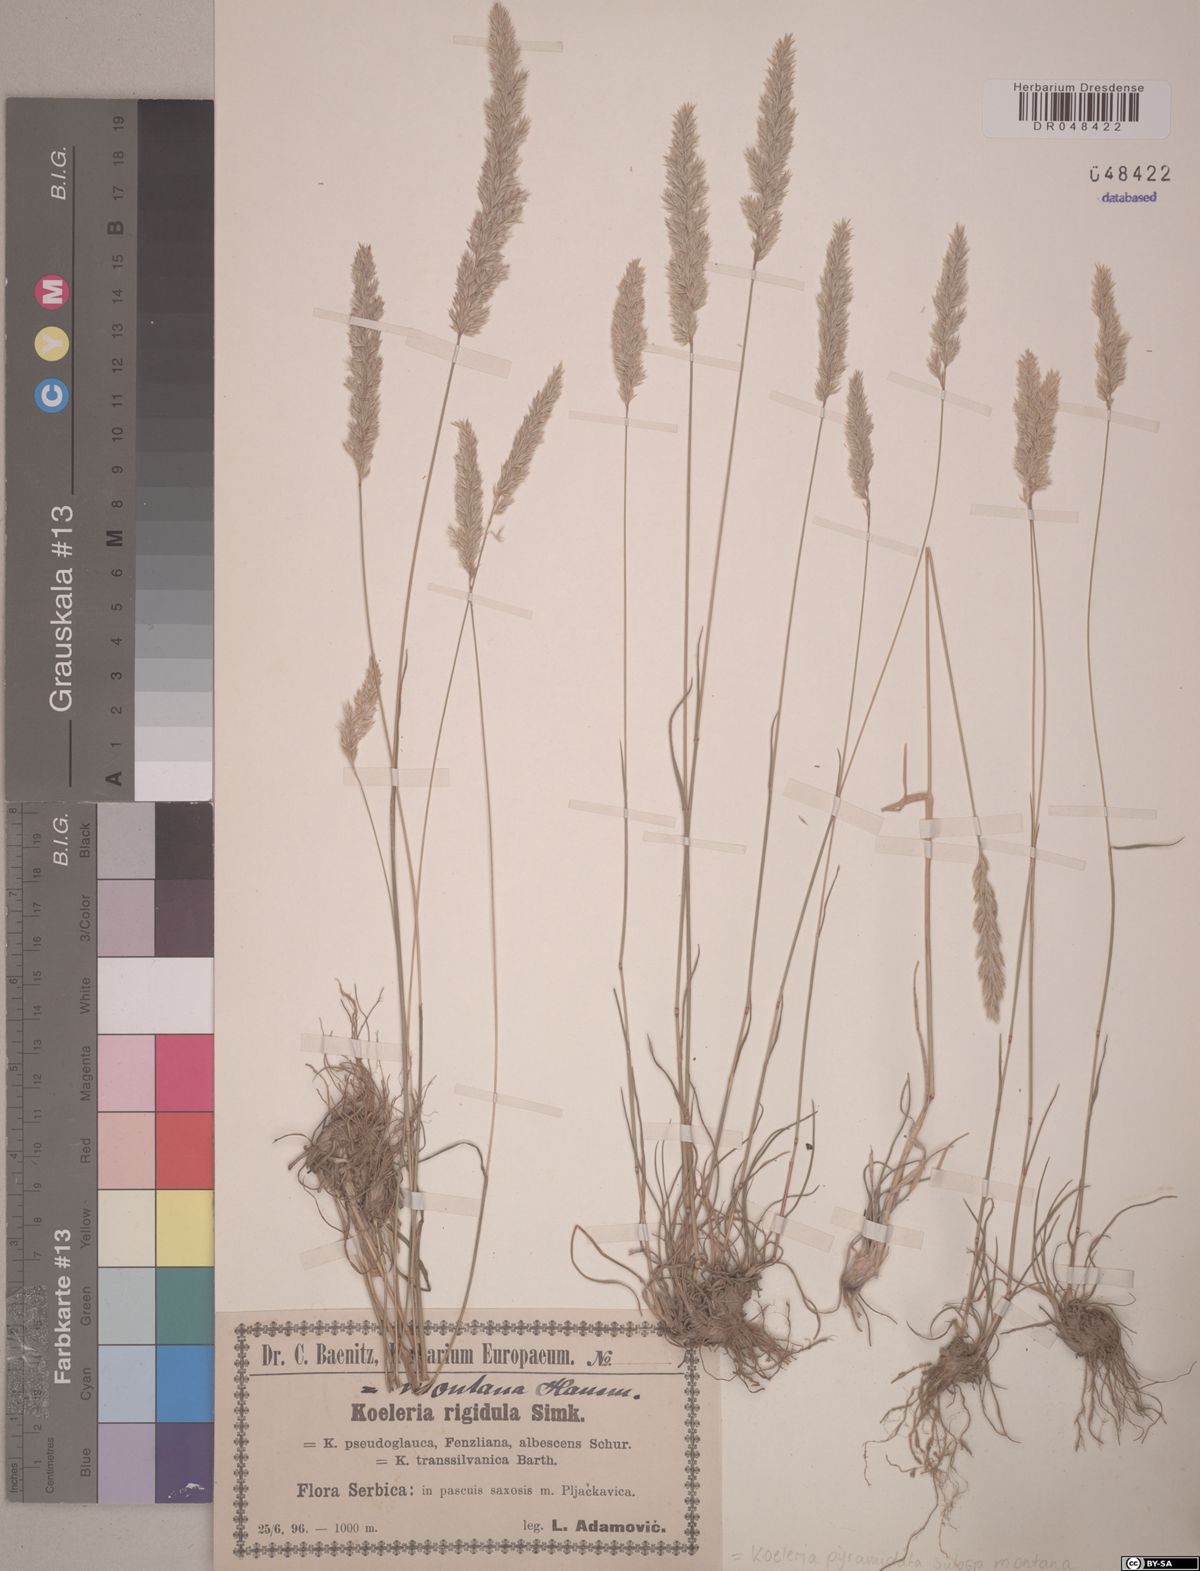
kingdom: Plantae
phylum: Tracheophyta
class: Liliopsida
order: Poales
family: Poaceae
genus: Koeleria
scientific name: Koeleria pyramidata
